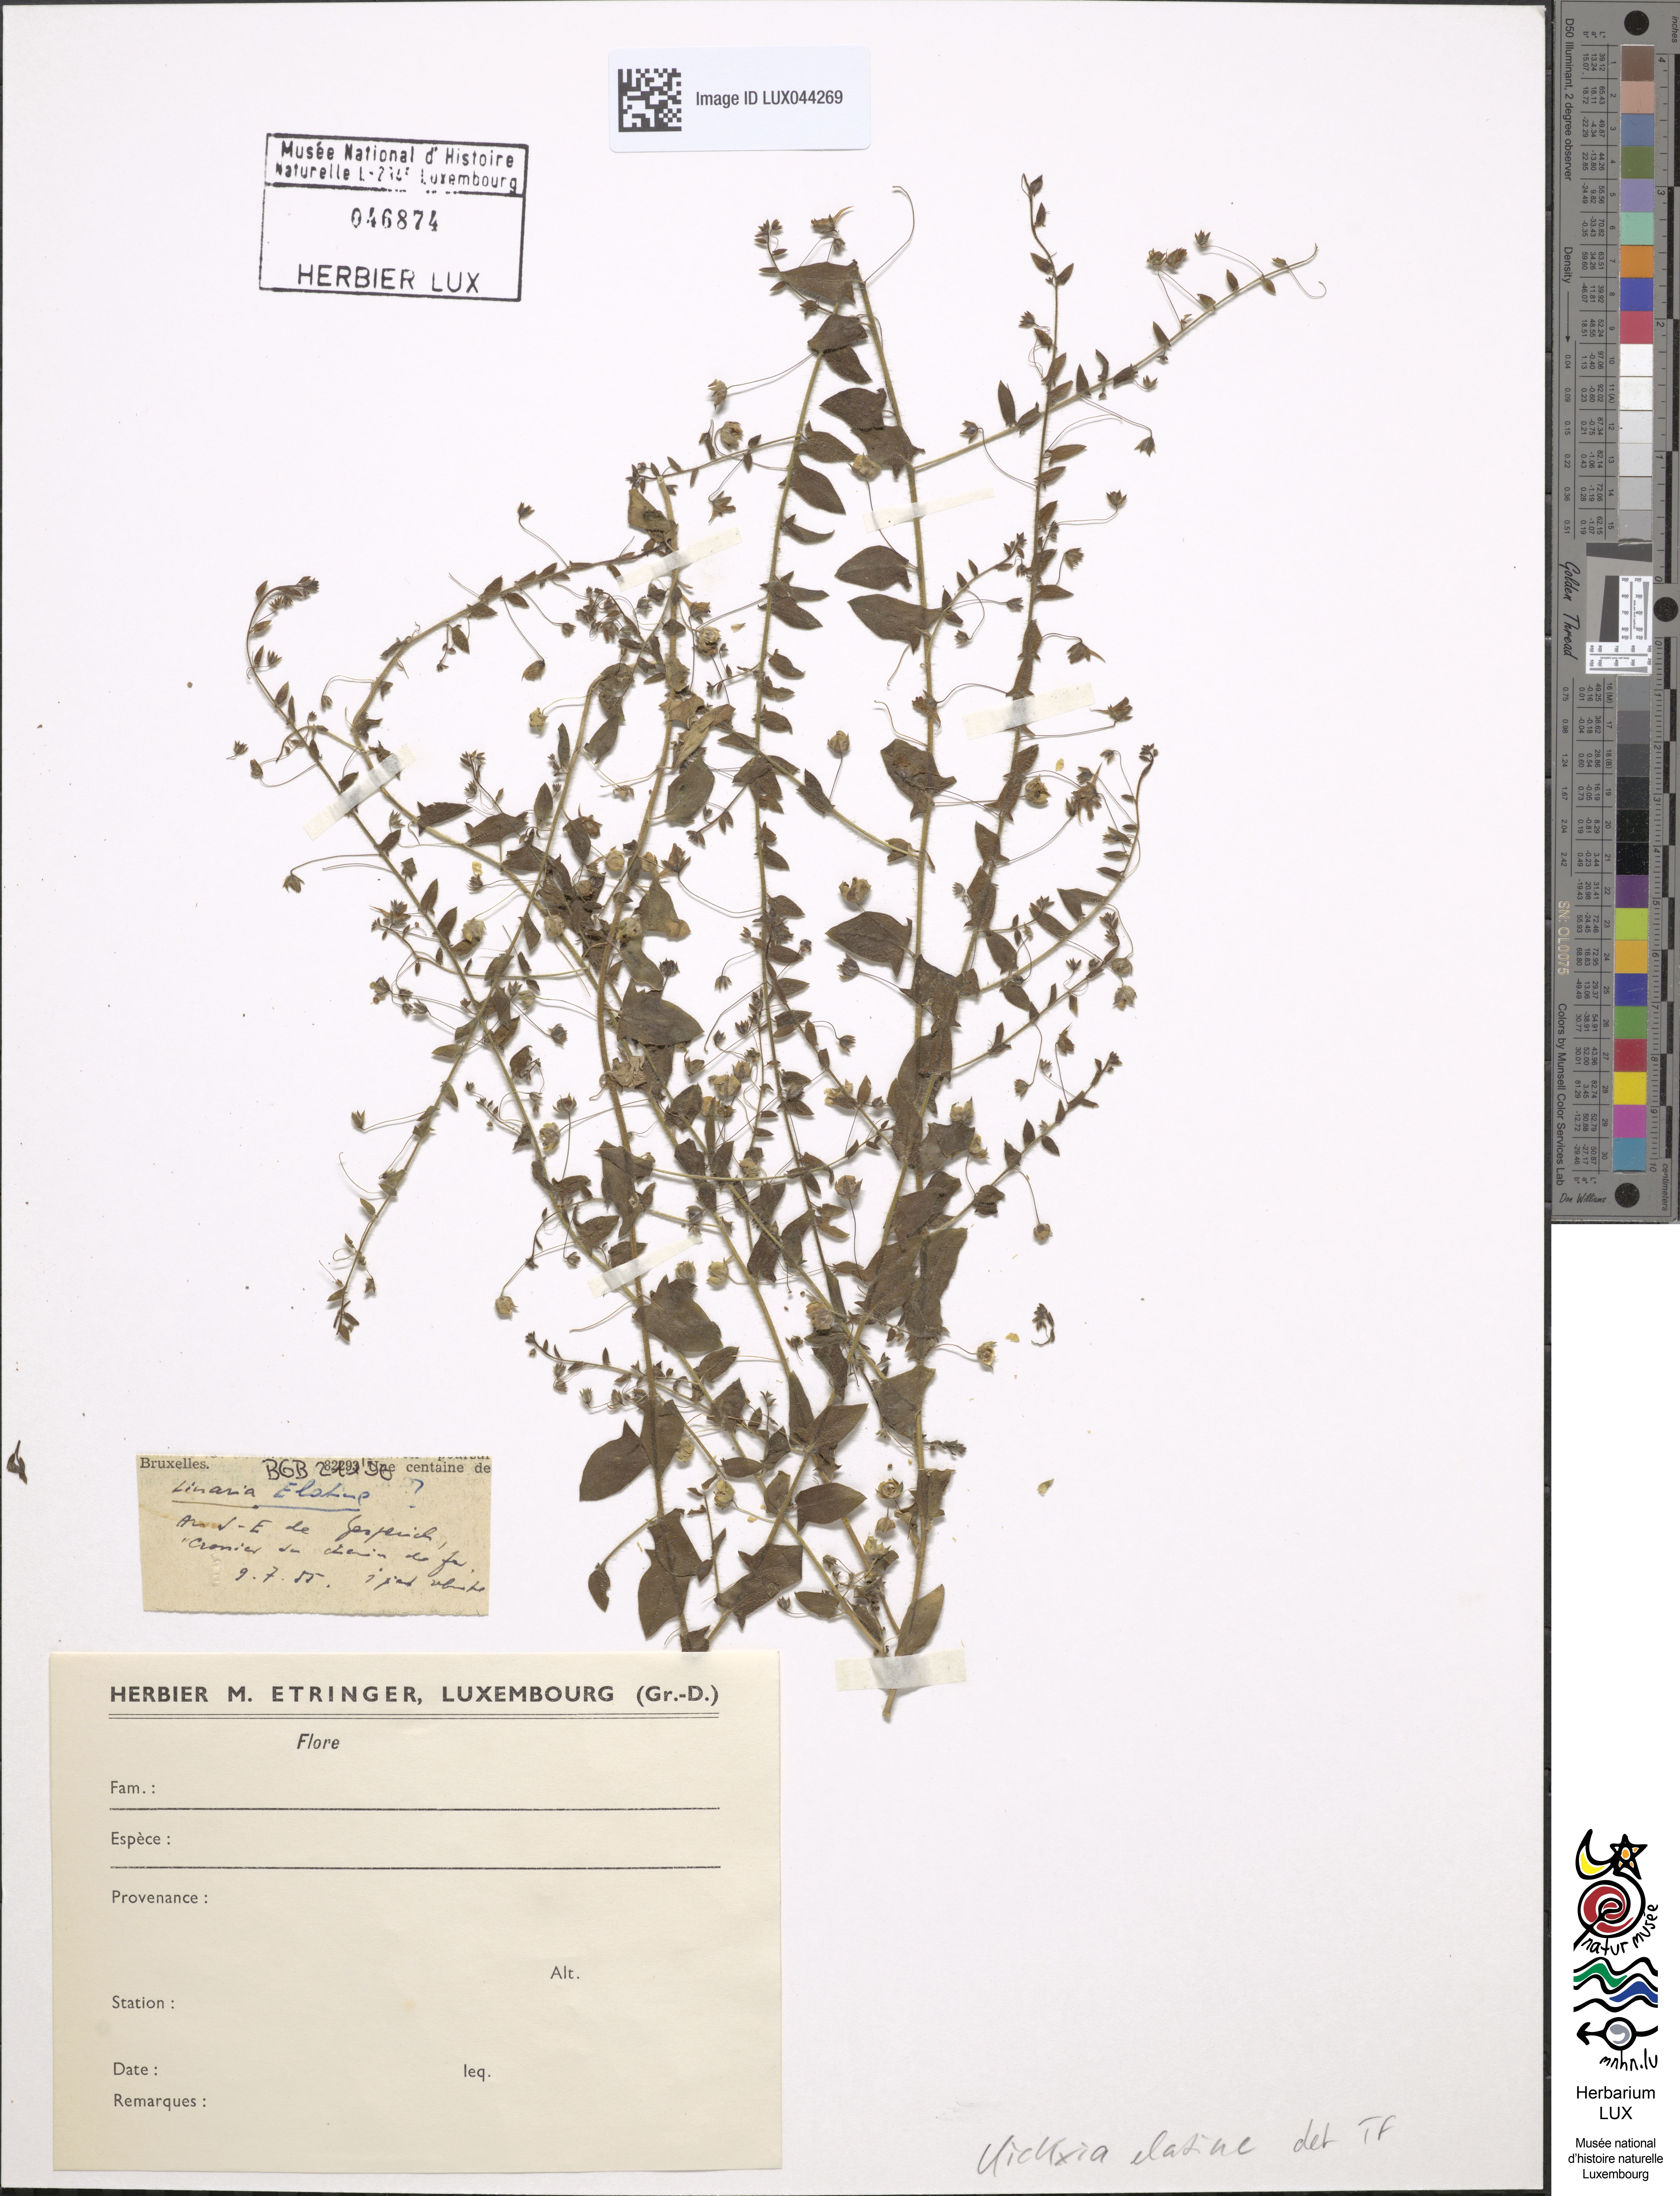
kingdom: Plantae
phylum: Tracheophyta
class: Magnoliopsida
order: Lamiales
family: Plantaginaceae
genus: Kickxia
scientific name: Kickxia elatine
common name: Sharp-leaved fluellen
